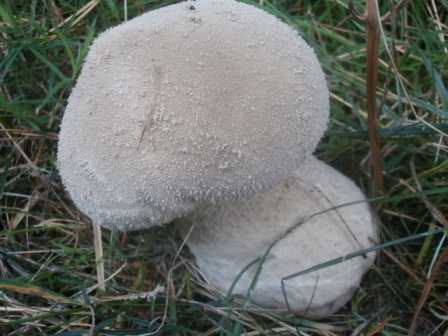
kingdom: Fungi
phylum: Basidiomycota
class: Agaricomycetes
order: Agaricales
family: Lycoperdaceae
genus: Lycoperdon
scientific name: Lycoperdon excipuliforme
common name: højstokket støvbold
